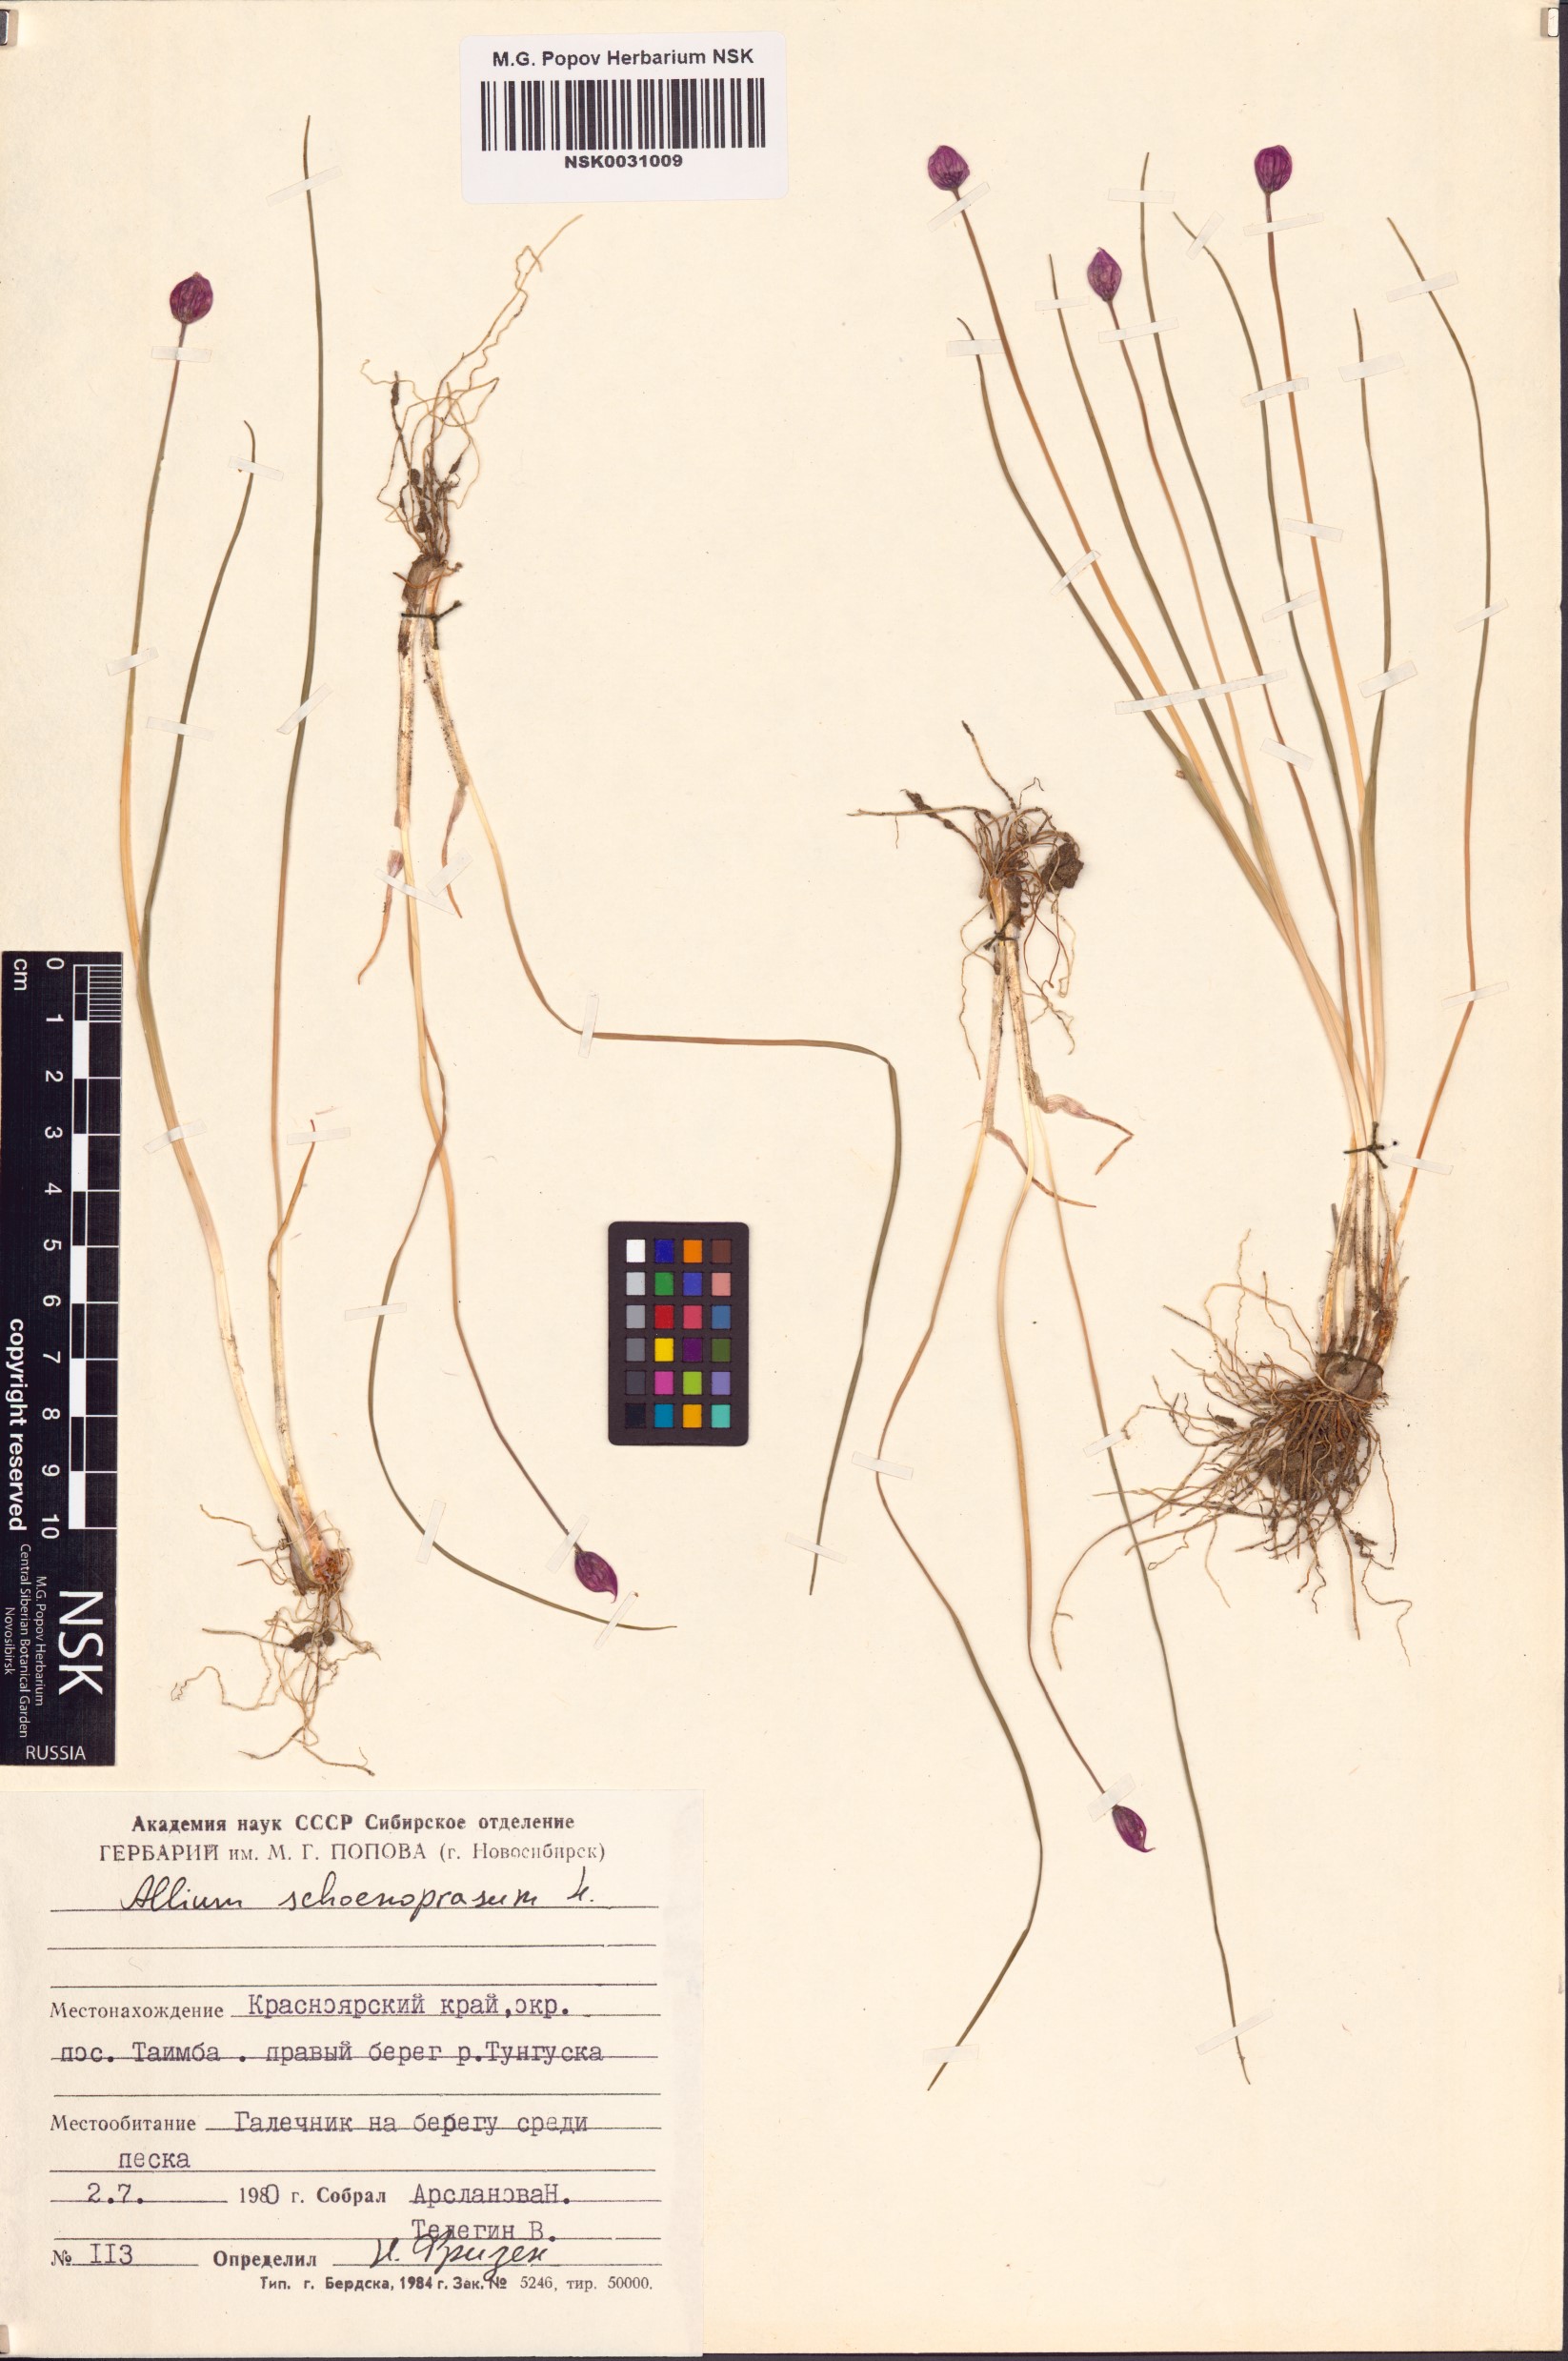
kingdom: Plantae
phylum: Tracheophyta
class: Liliopsida
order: Asparagales
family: Amaryllidaceae
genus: Allium
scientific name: Allium schoenoprasum
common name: Chives
